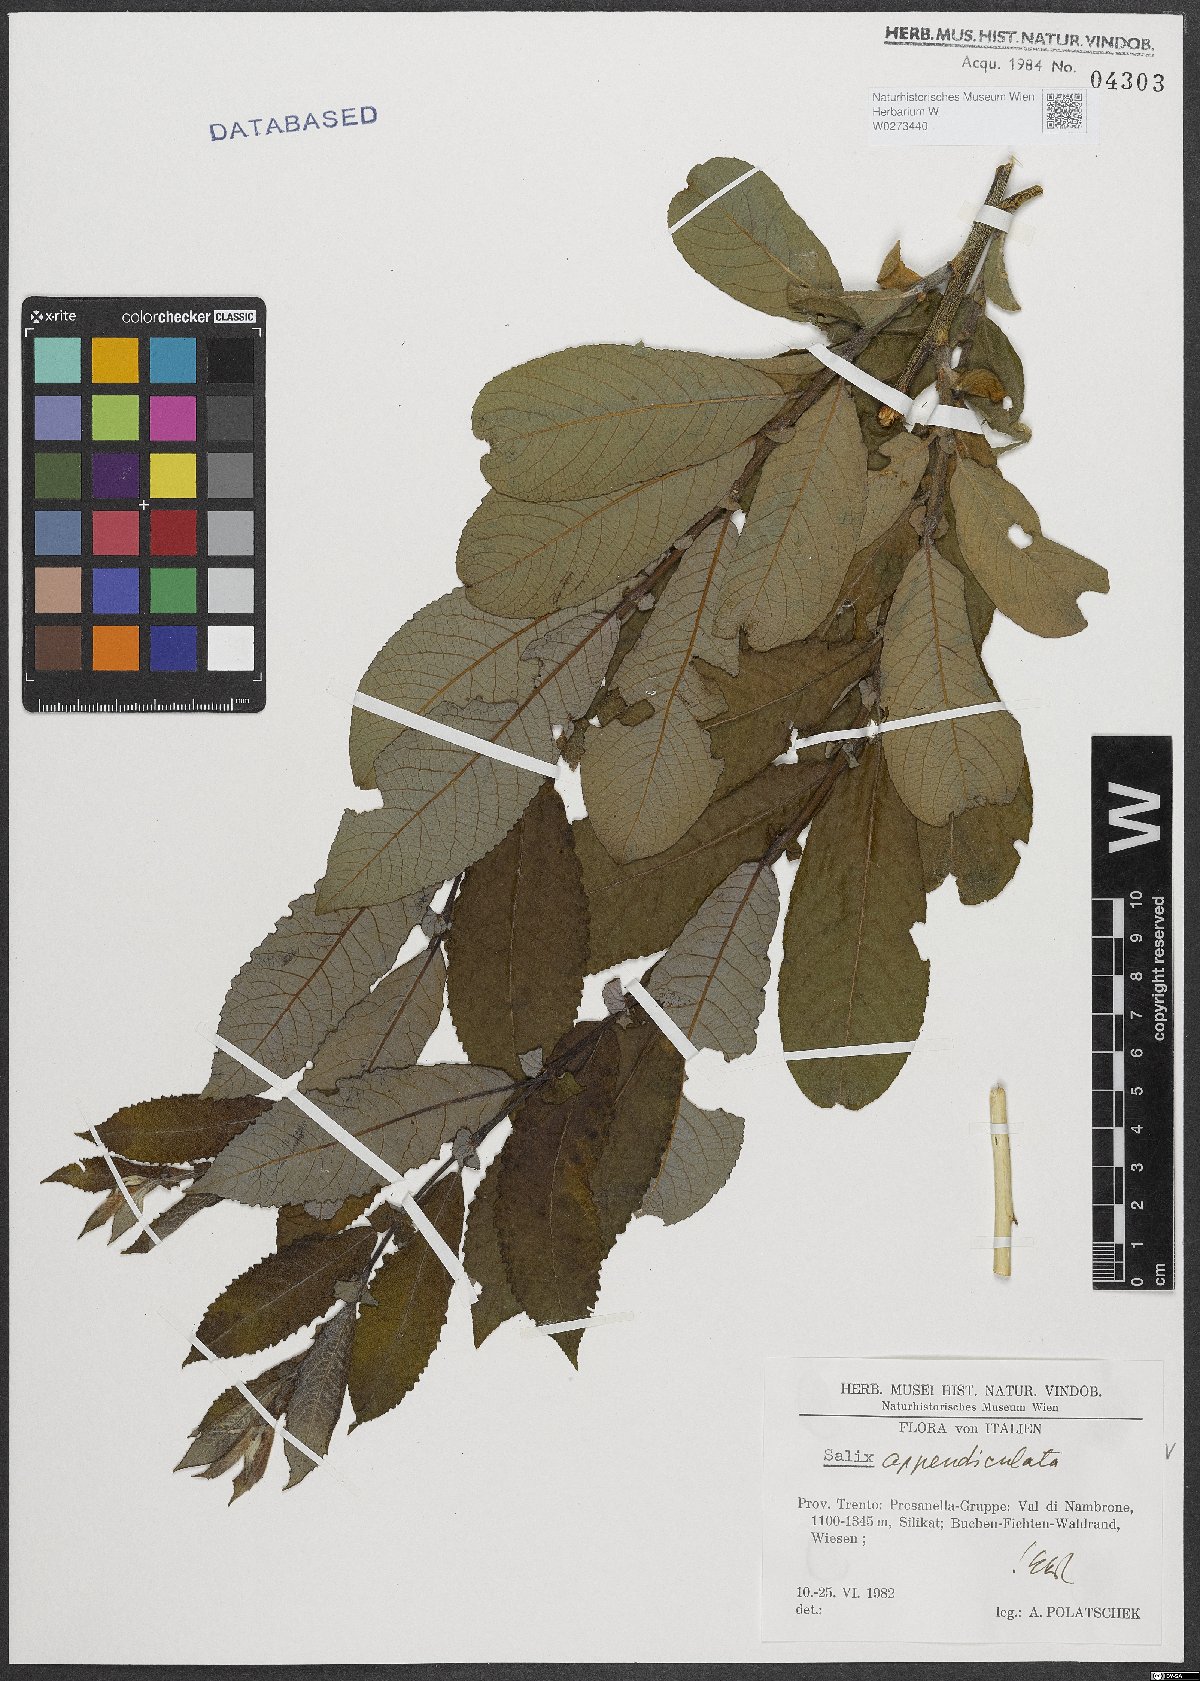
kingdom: Plantae
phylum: Tracheophyta
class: Magnoliopsida
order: Malpighiales
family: Salicaceae
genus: Salix
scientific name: Salix appendiculata
